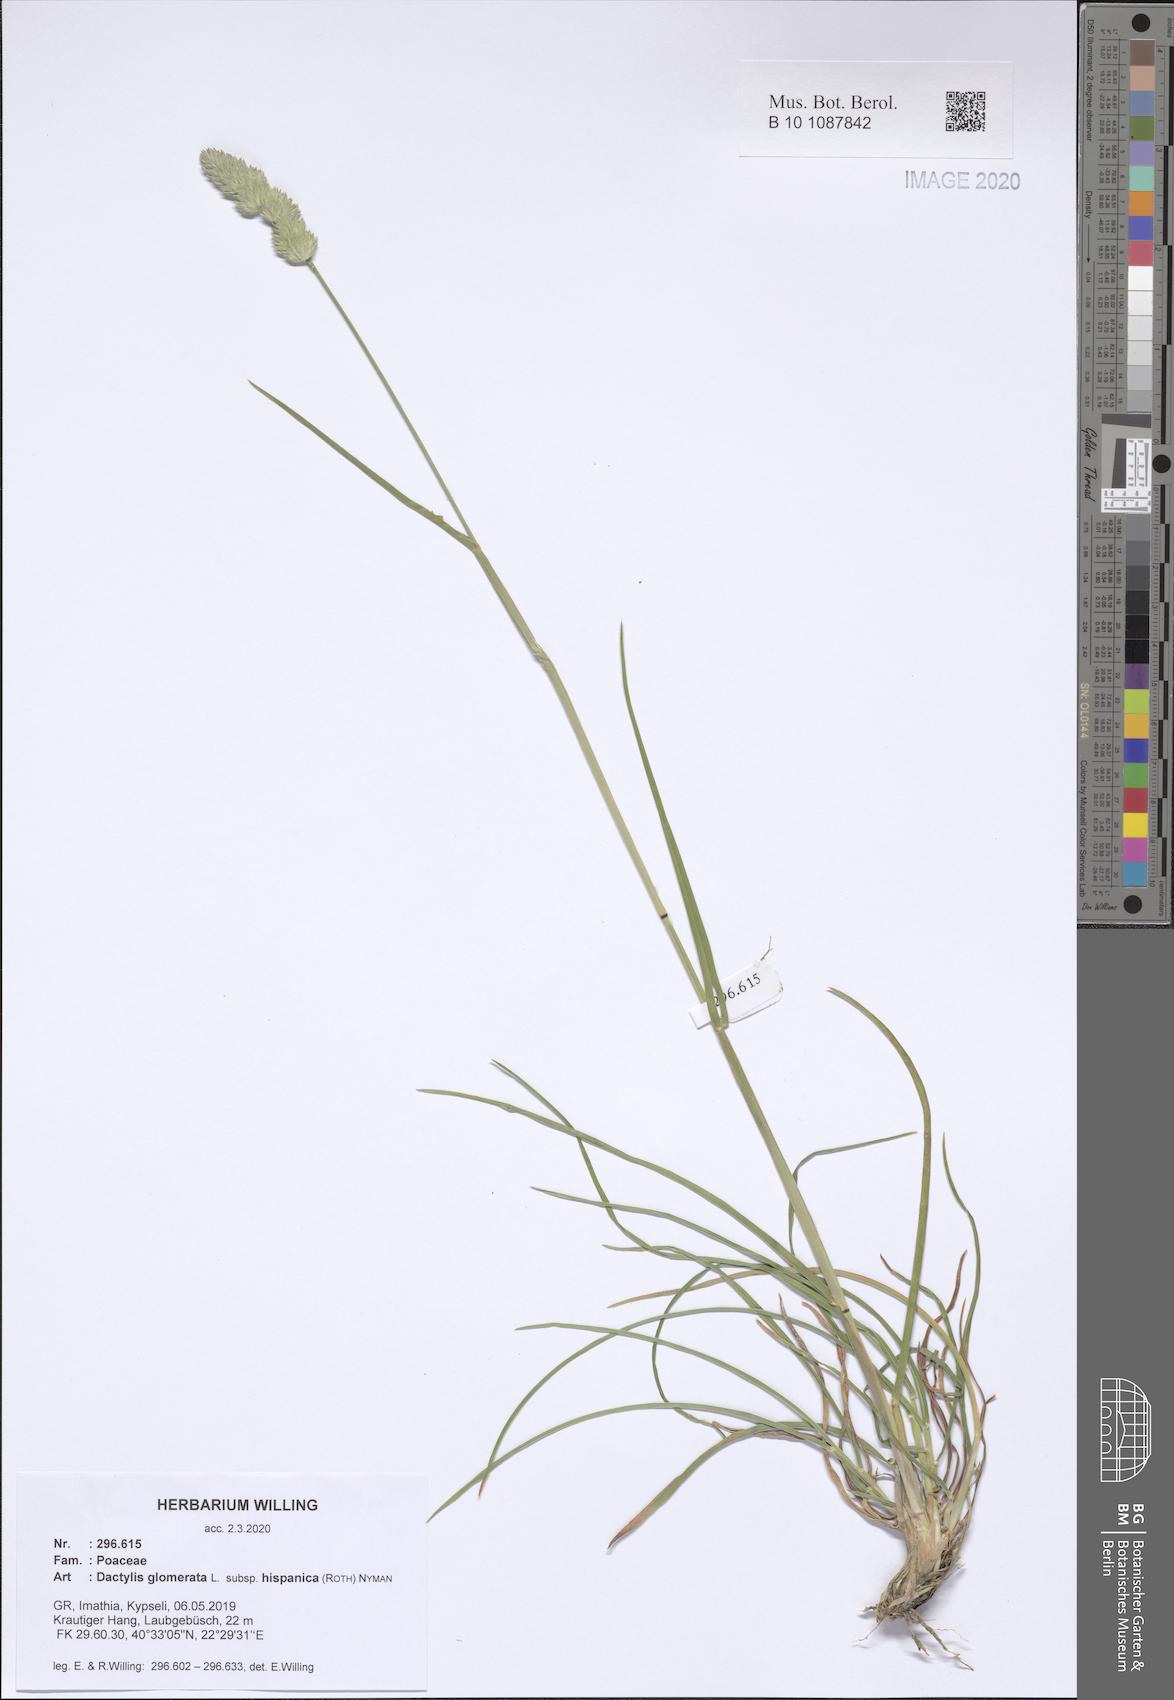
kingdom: Plantae
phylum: Tracheophyta
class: Liliopsida
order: Poales
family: Poaceae
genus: Dactylis
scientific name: Dactylis glomerata
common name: Orchardgrass
